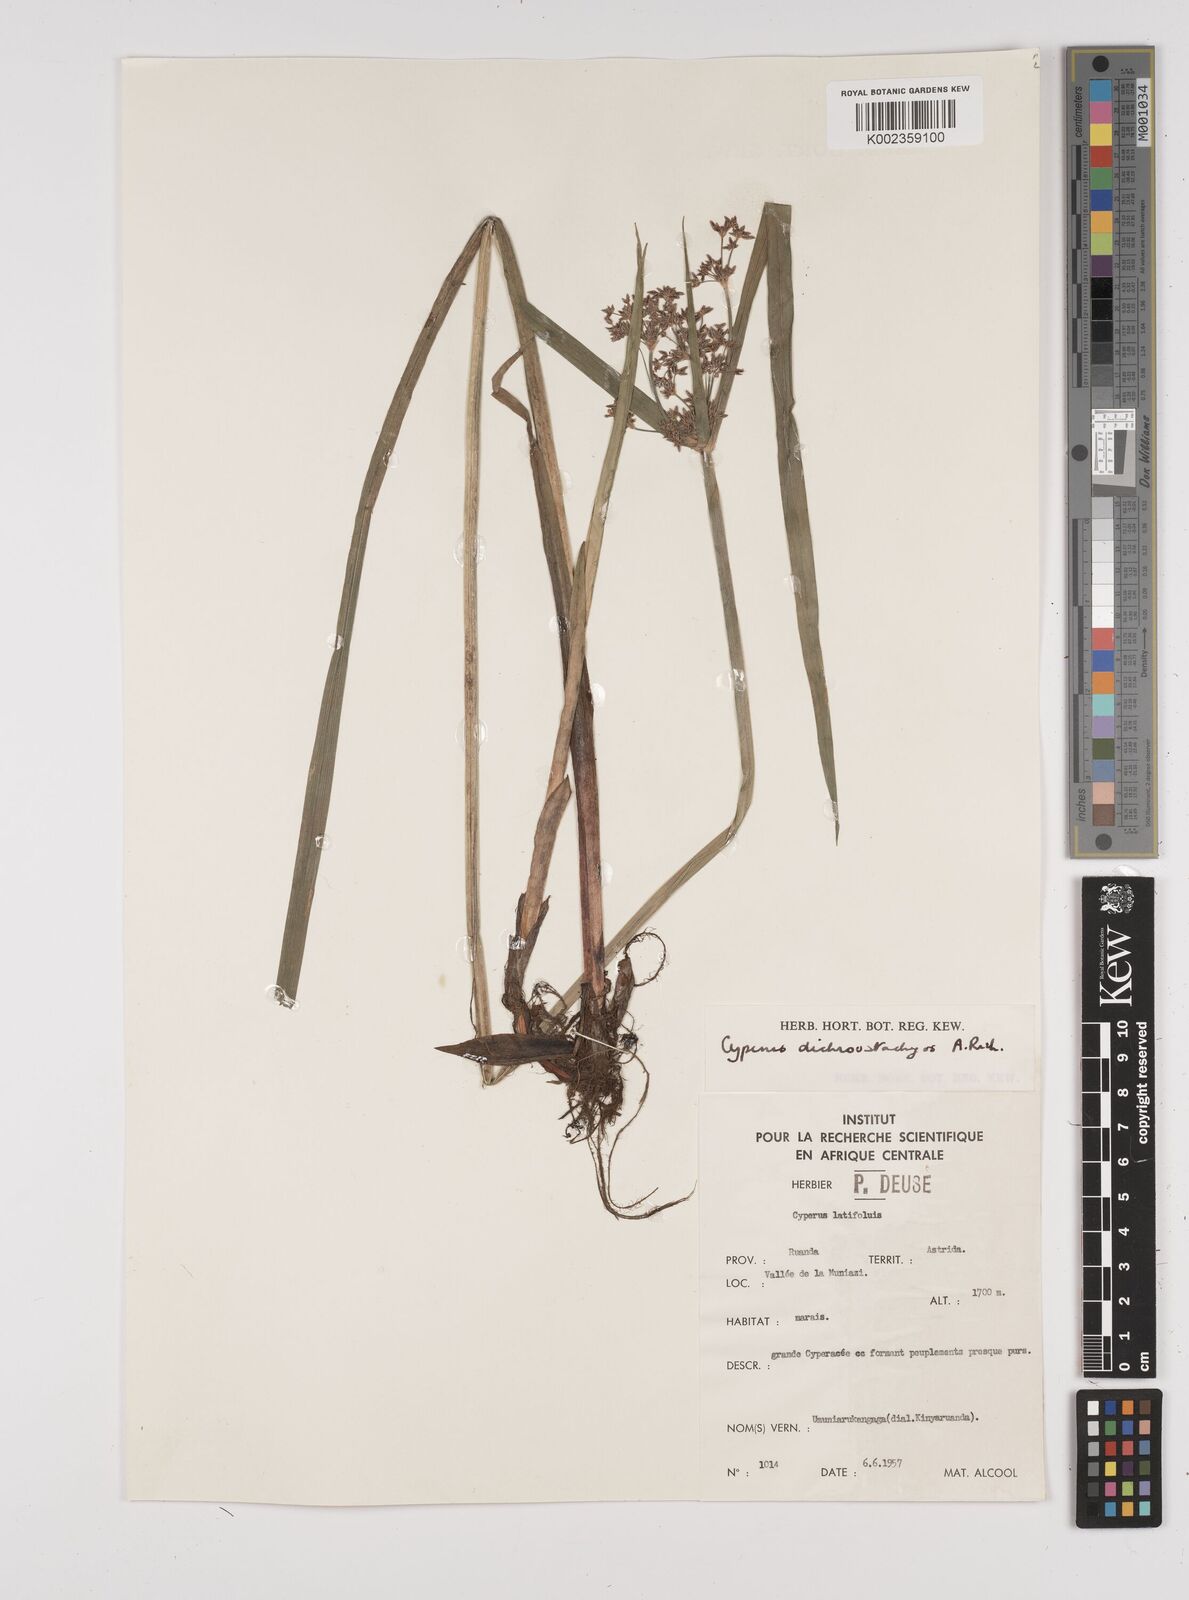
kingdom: Plantae
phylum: Tracheophyta
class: Liliopsida
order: Poales
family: Cyperaceae
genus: Cyperus
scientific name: Cyperus dichrostachyus
